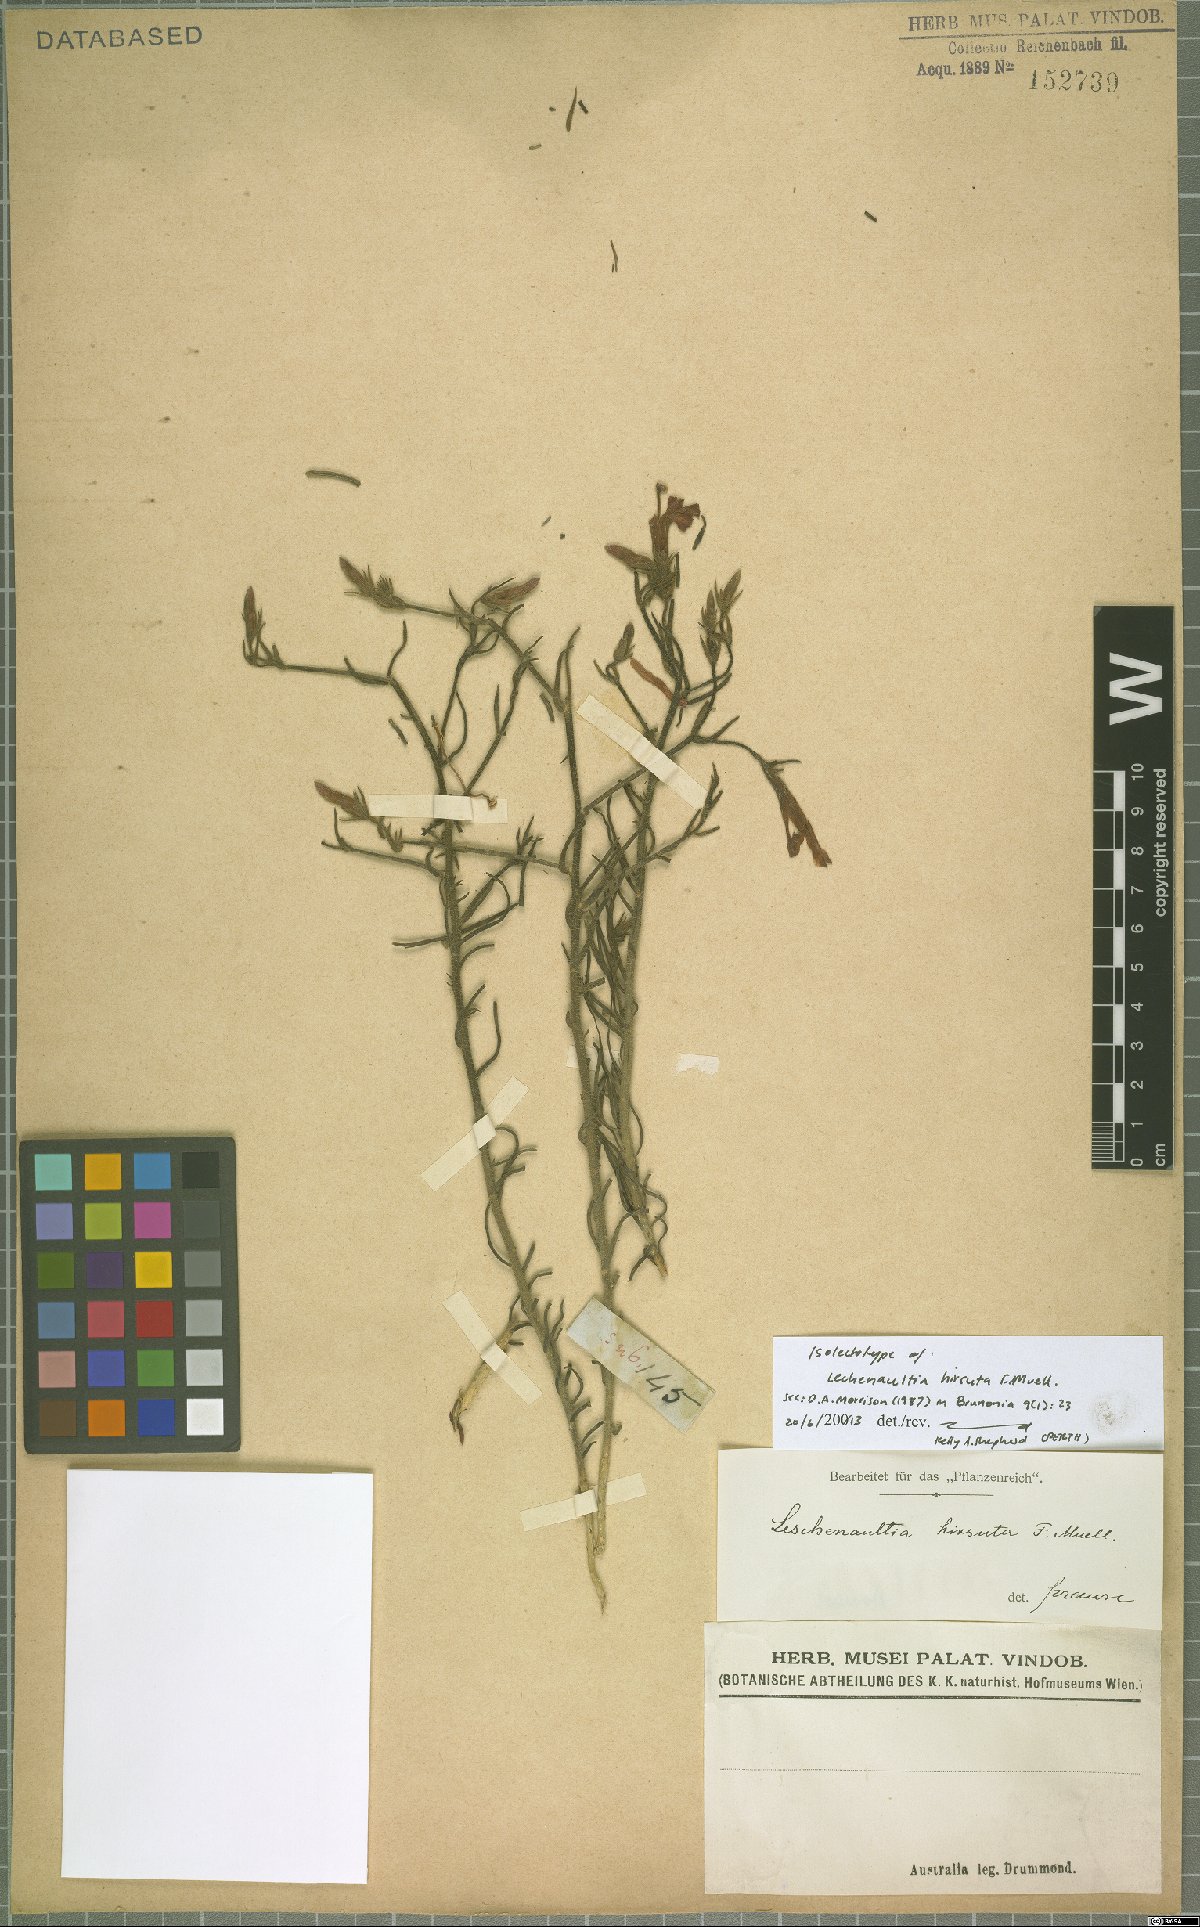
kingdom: Plantae
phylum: Tracheophyta
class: Magnoliopsida
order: Asterales
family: Goodeniaceae
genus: Lechenaultia
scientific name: Lechenaultia hirsuta
